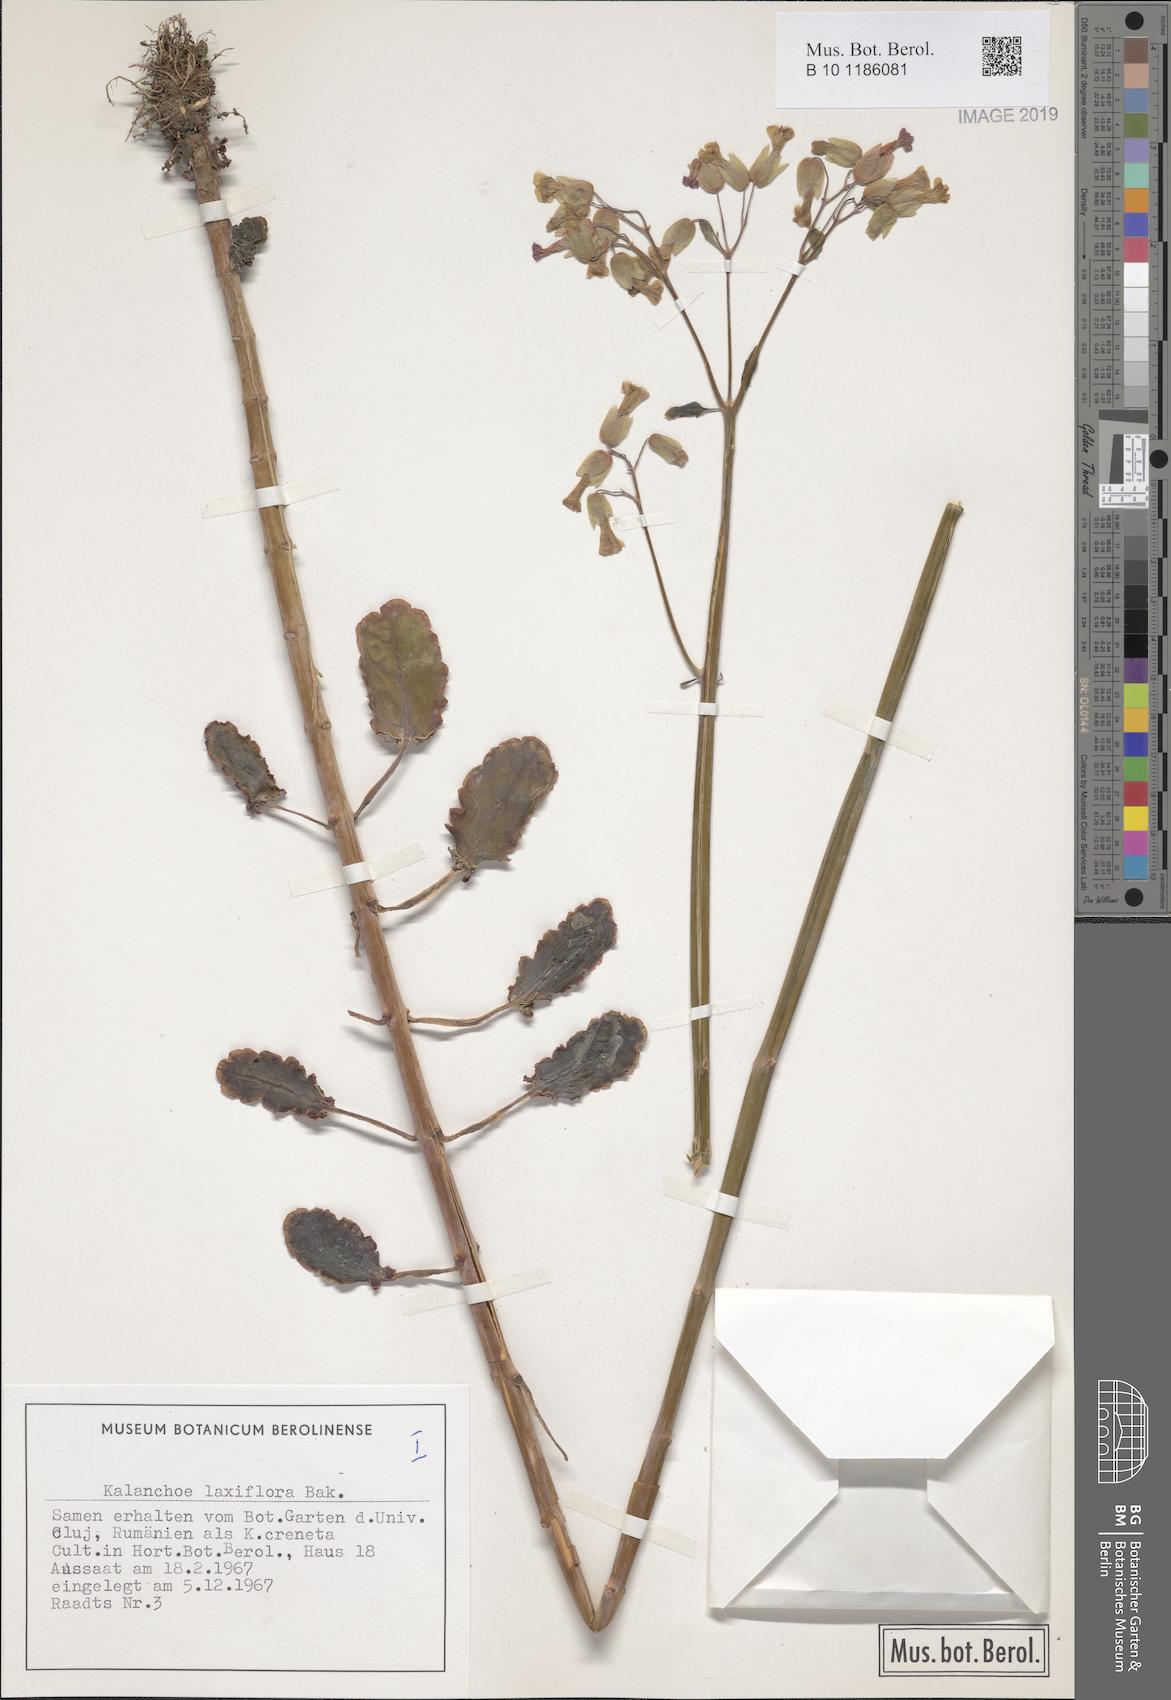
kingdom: Plantae
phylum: Tracheophyta
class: Magnoliopsida
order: Saxifragales
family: Crassulaceae
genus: Kalanchoe
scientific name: Kalanchoe laxiflora
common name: Milky widow's thrill
